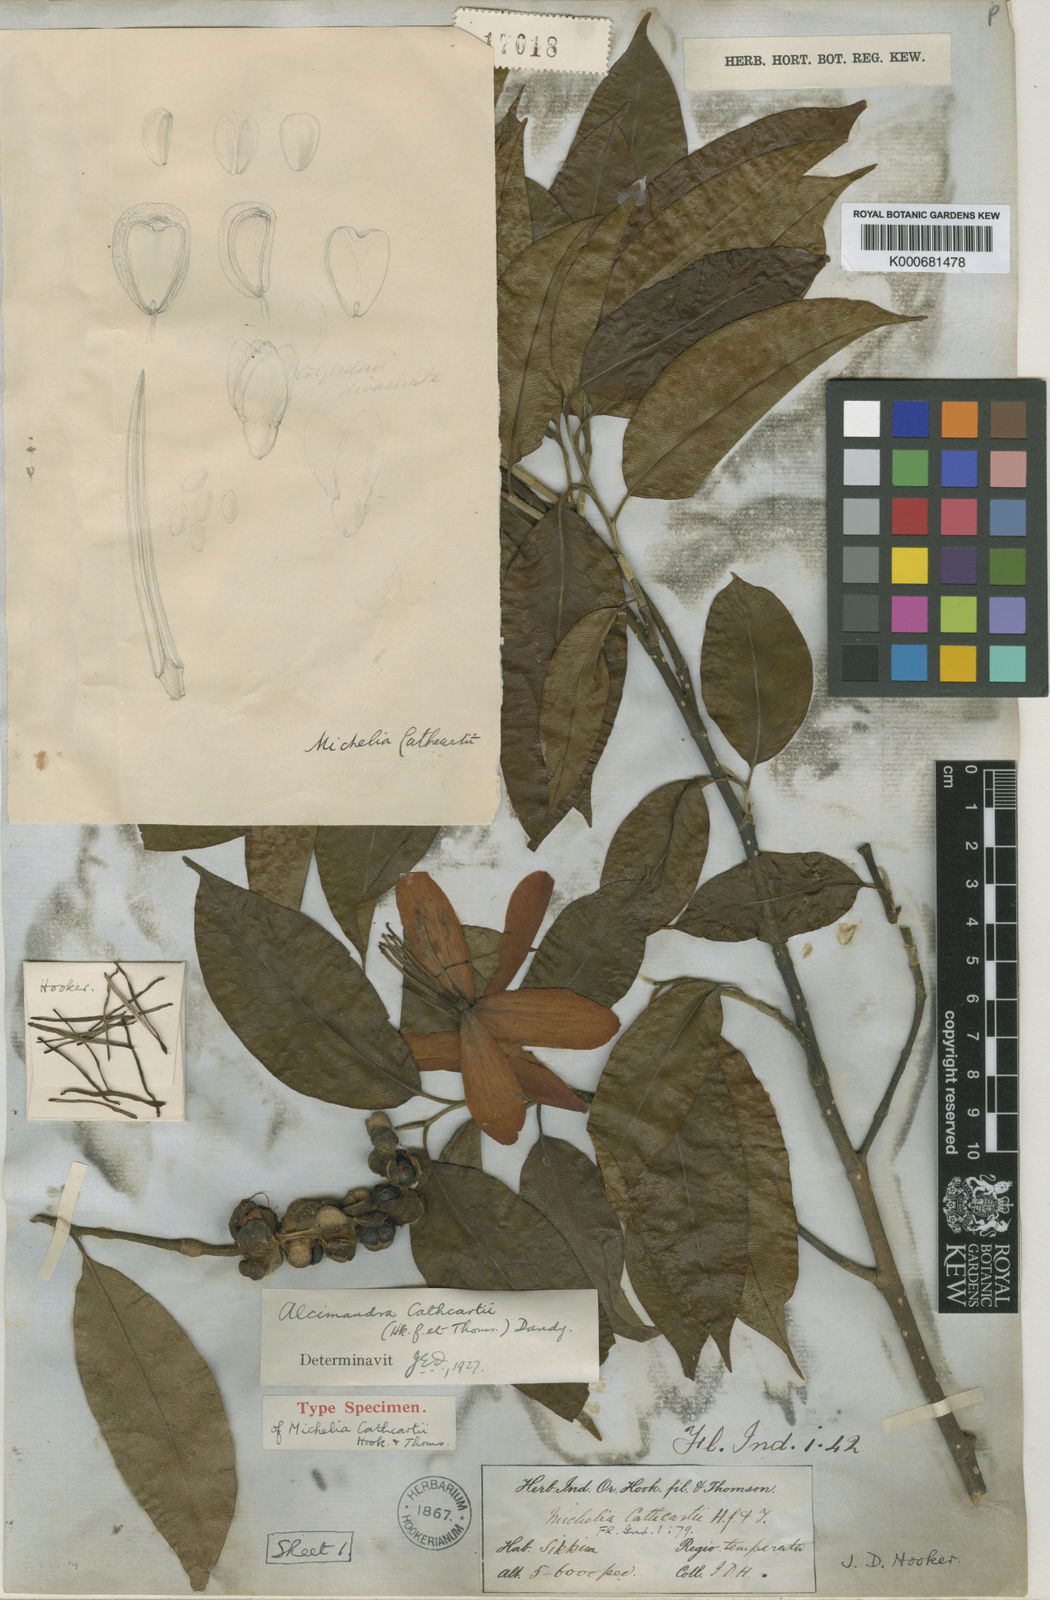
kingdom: Plantae
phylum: Tracheophyta
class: Magnoliopsida
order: Magnoliales
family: Magnoliaceae
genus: Magnolia
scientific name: Magnolia cathcartii
